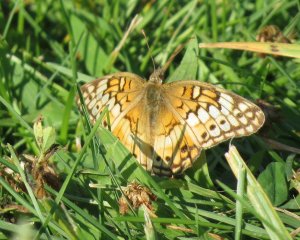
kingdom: Animalia
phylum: Arthropoda
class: Insecta
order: Lepidoptera
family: Nymphalidae
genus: Euptoieta
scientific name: Euptoieta claudia
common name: Variegated Fritillary
